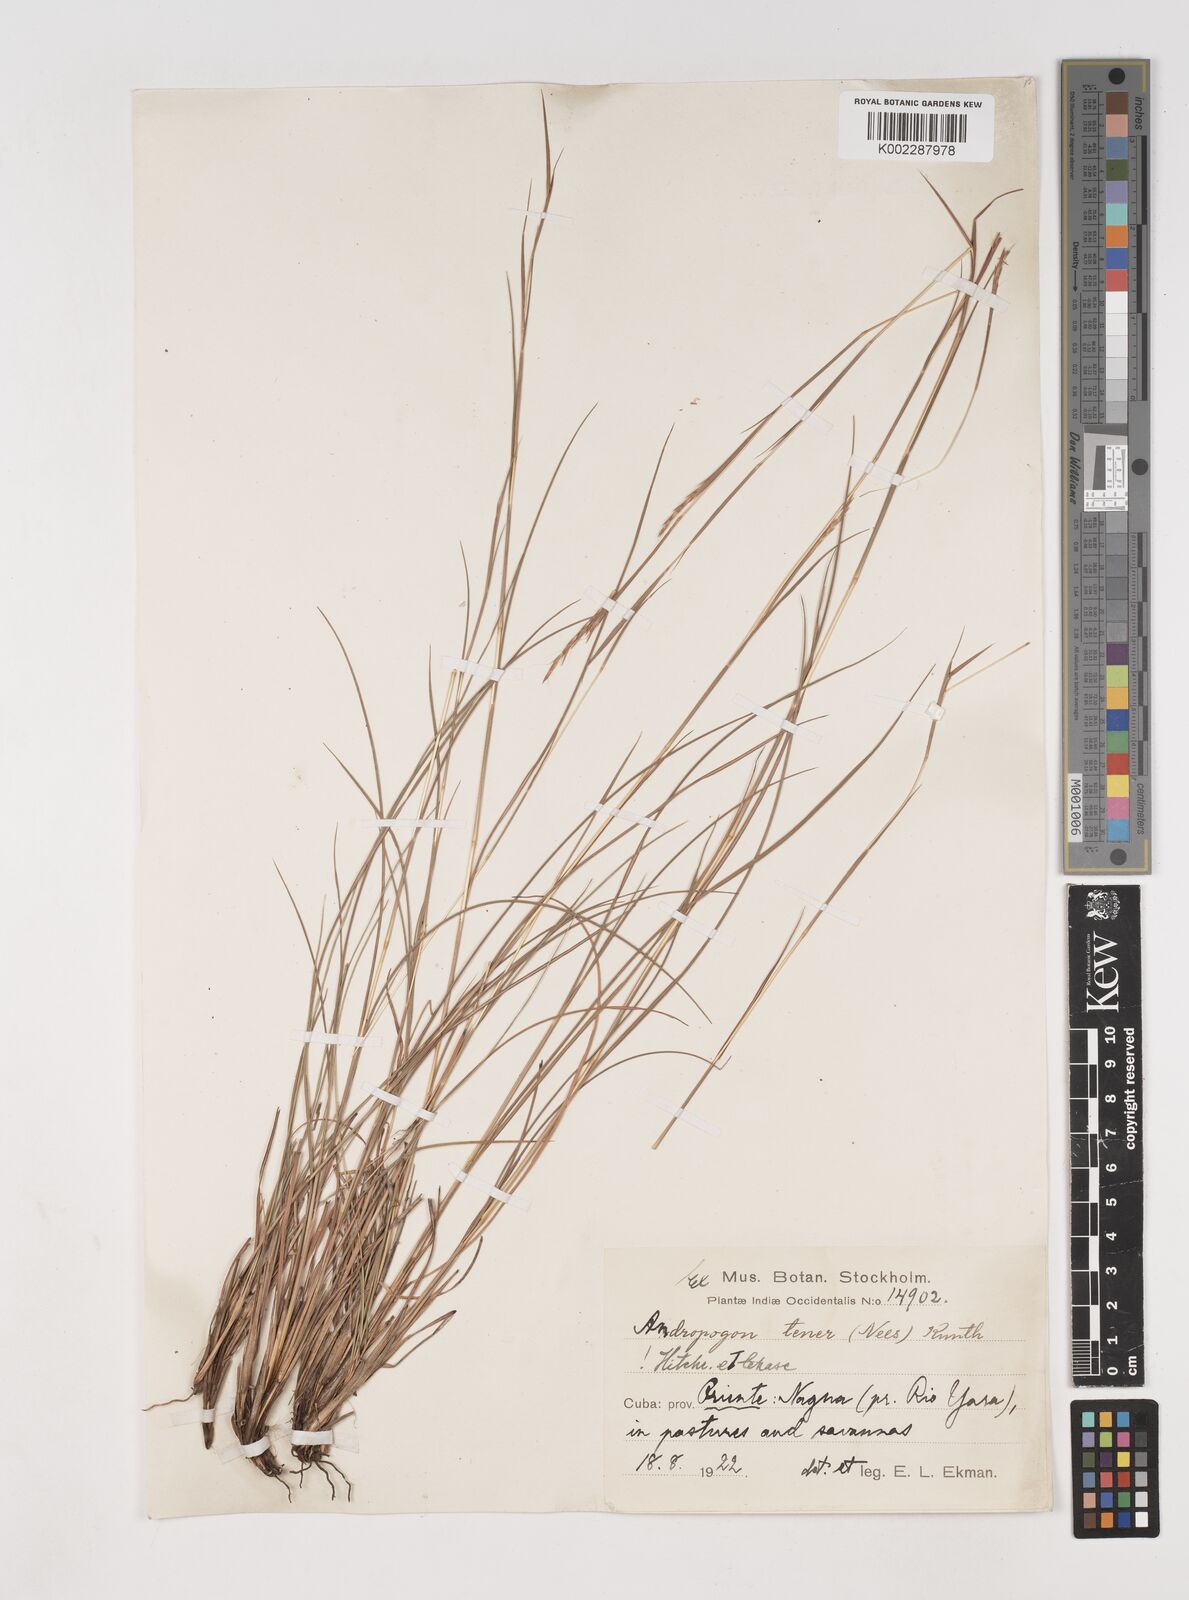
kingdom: Plantae
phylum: Tracheophyta
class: Liliopsida
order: Poales
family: Poaceae
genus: Andropogon
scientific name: Andropogon tener
